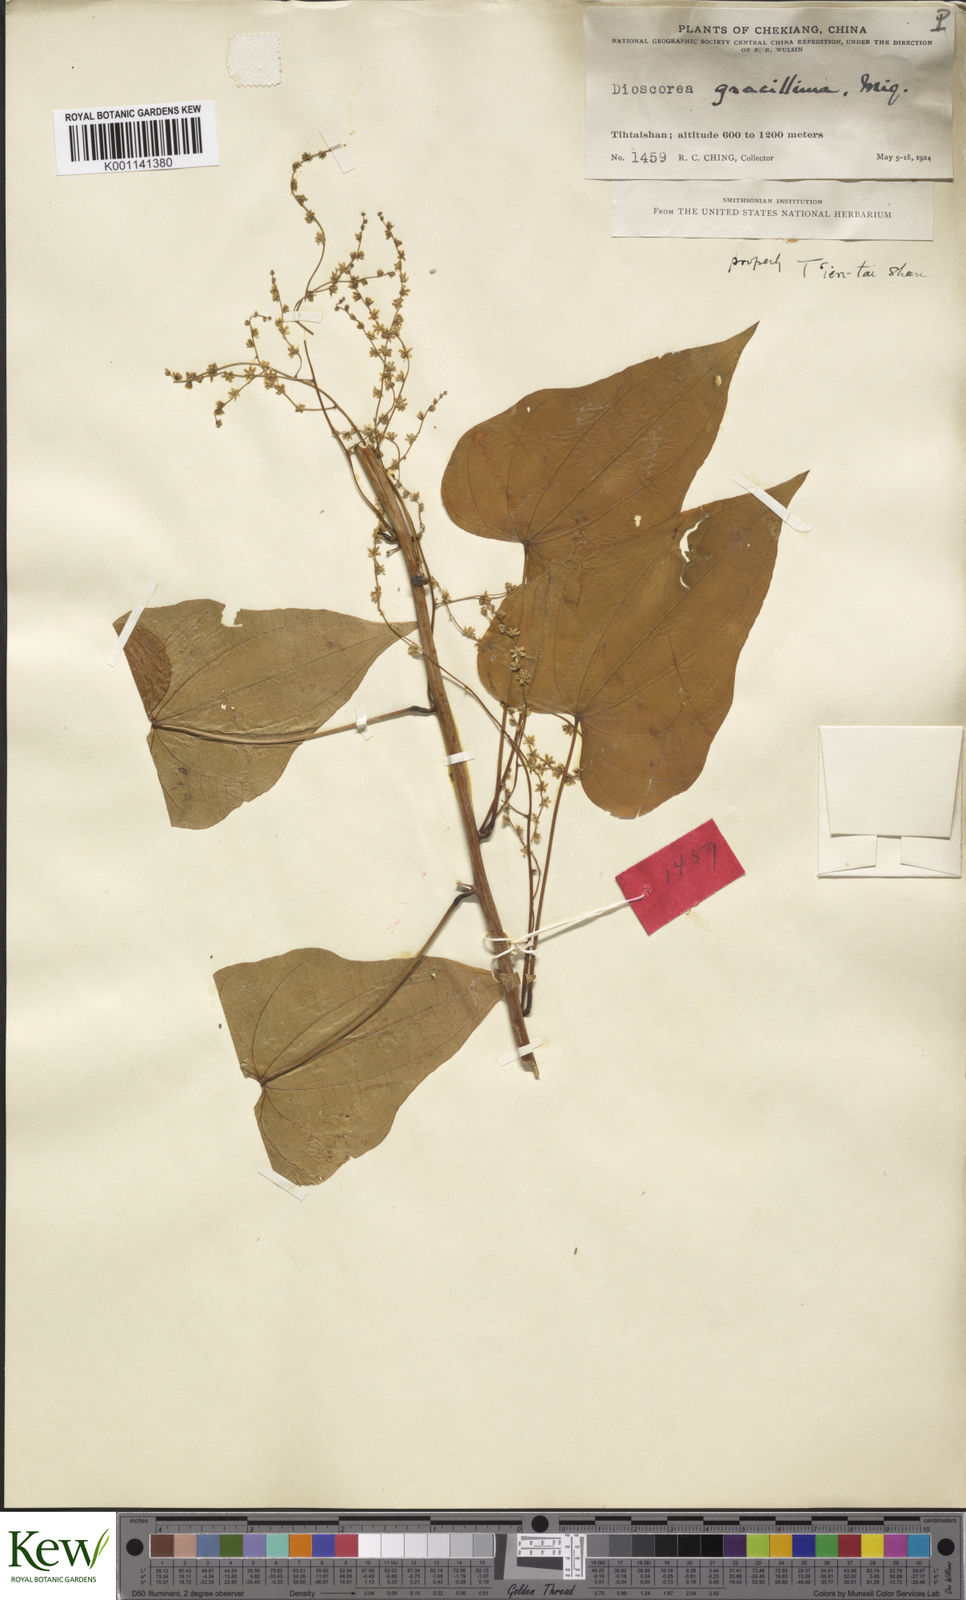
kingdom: Plantae
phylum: Tracheophyta
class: Liliopsida
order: Dioscoreales
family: Dioscoreaceae
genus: Dioscorea
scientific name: Dioscorea gracillima
